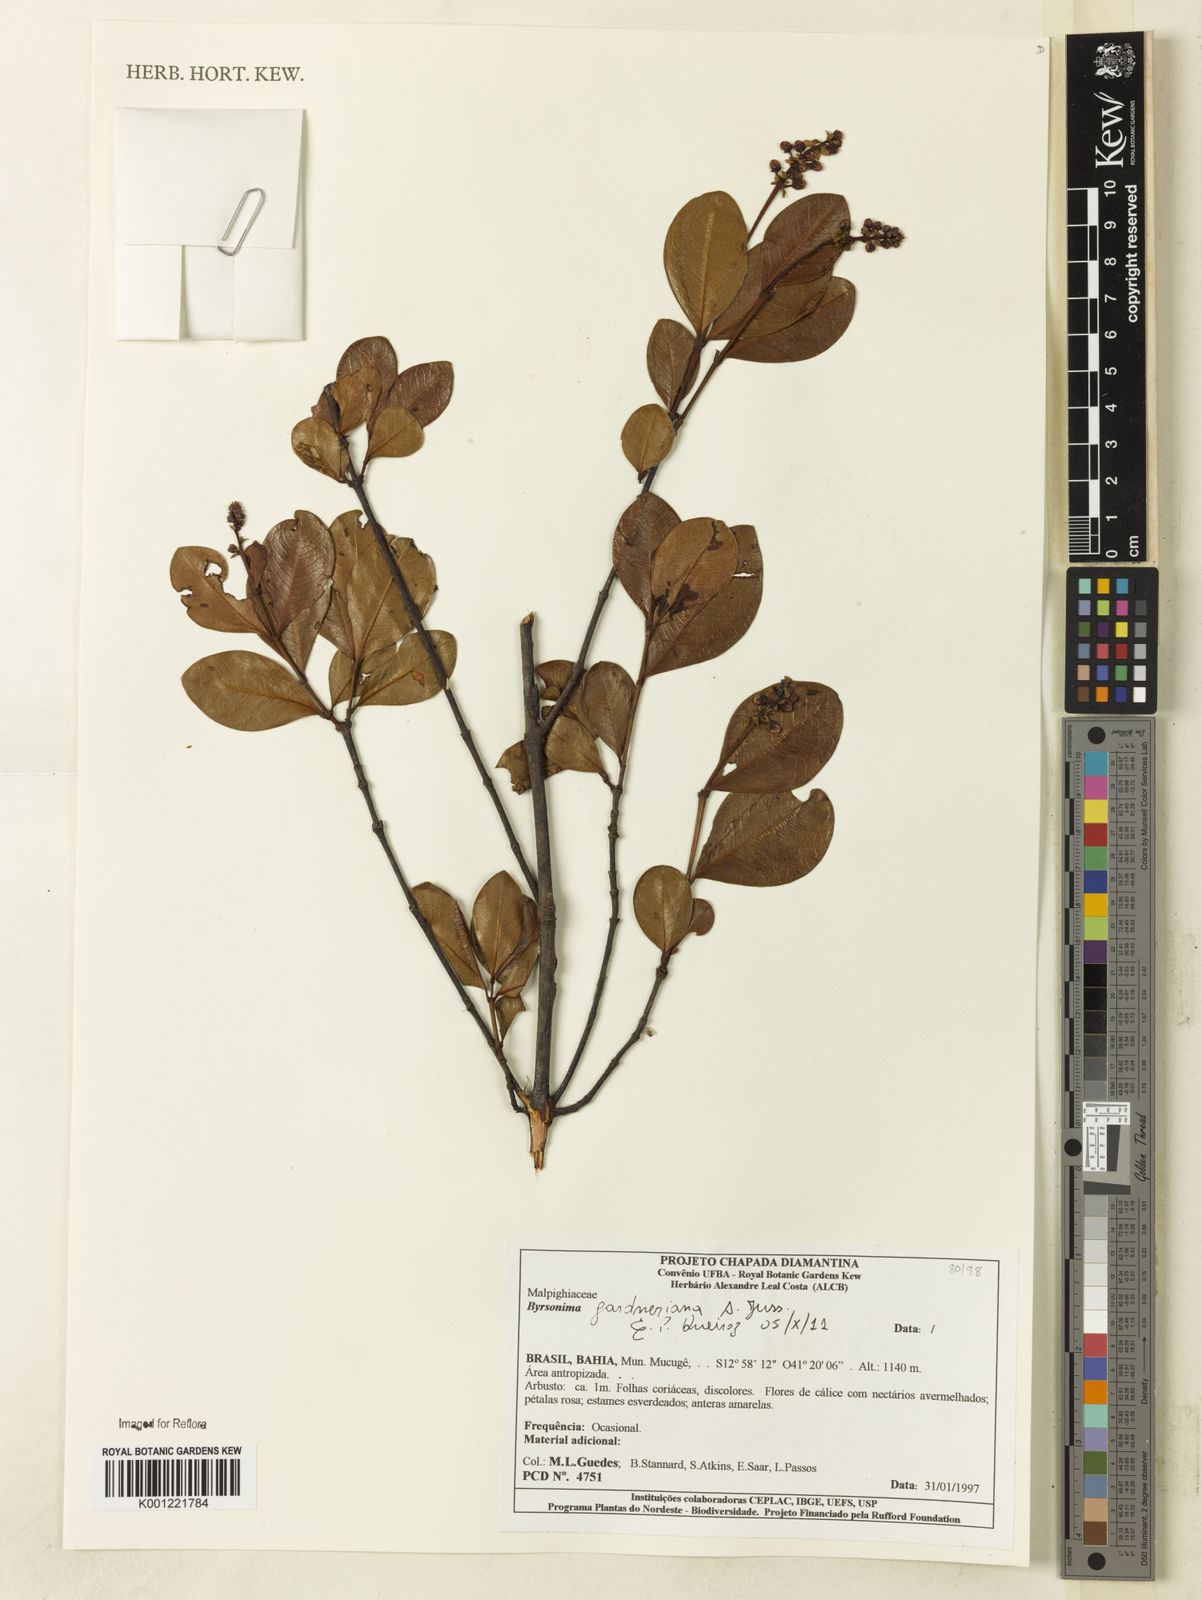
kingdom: Plantae
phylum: Tracheophyta
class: Magnoliopsida
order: Malpighiales
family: Malpighiaceae
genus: Byrsonima
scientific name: Byrsonima gardneriana
